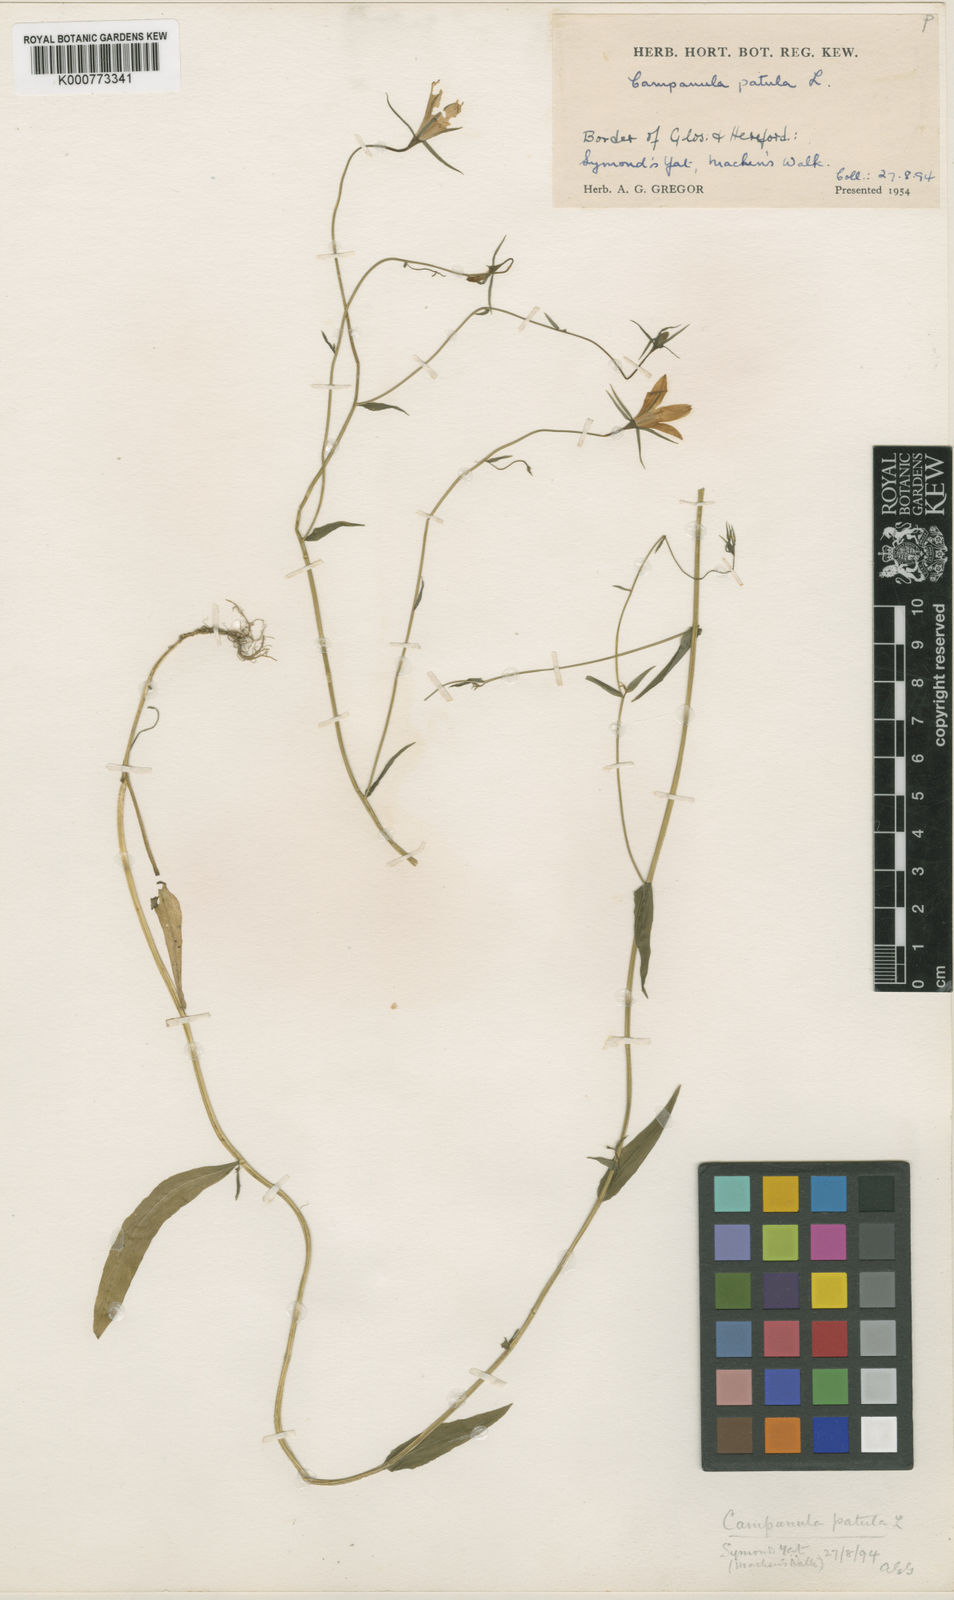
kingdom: Plantae
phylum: Tracheophyta
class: Magnoliopsida
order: Asterales
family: Campanulaceae
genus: Campanula
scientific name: Campanula patula
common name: Spreading bellflower
